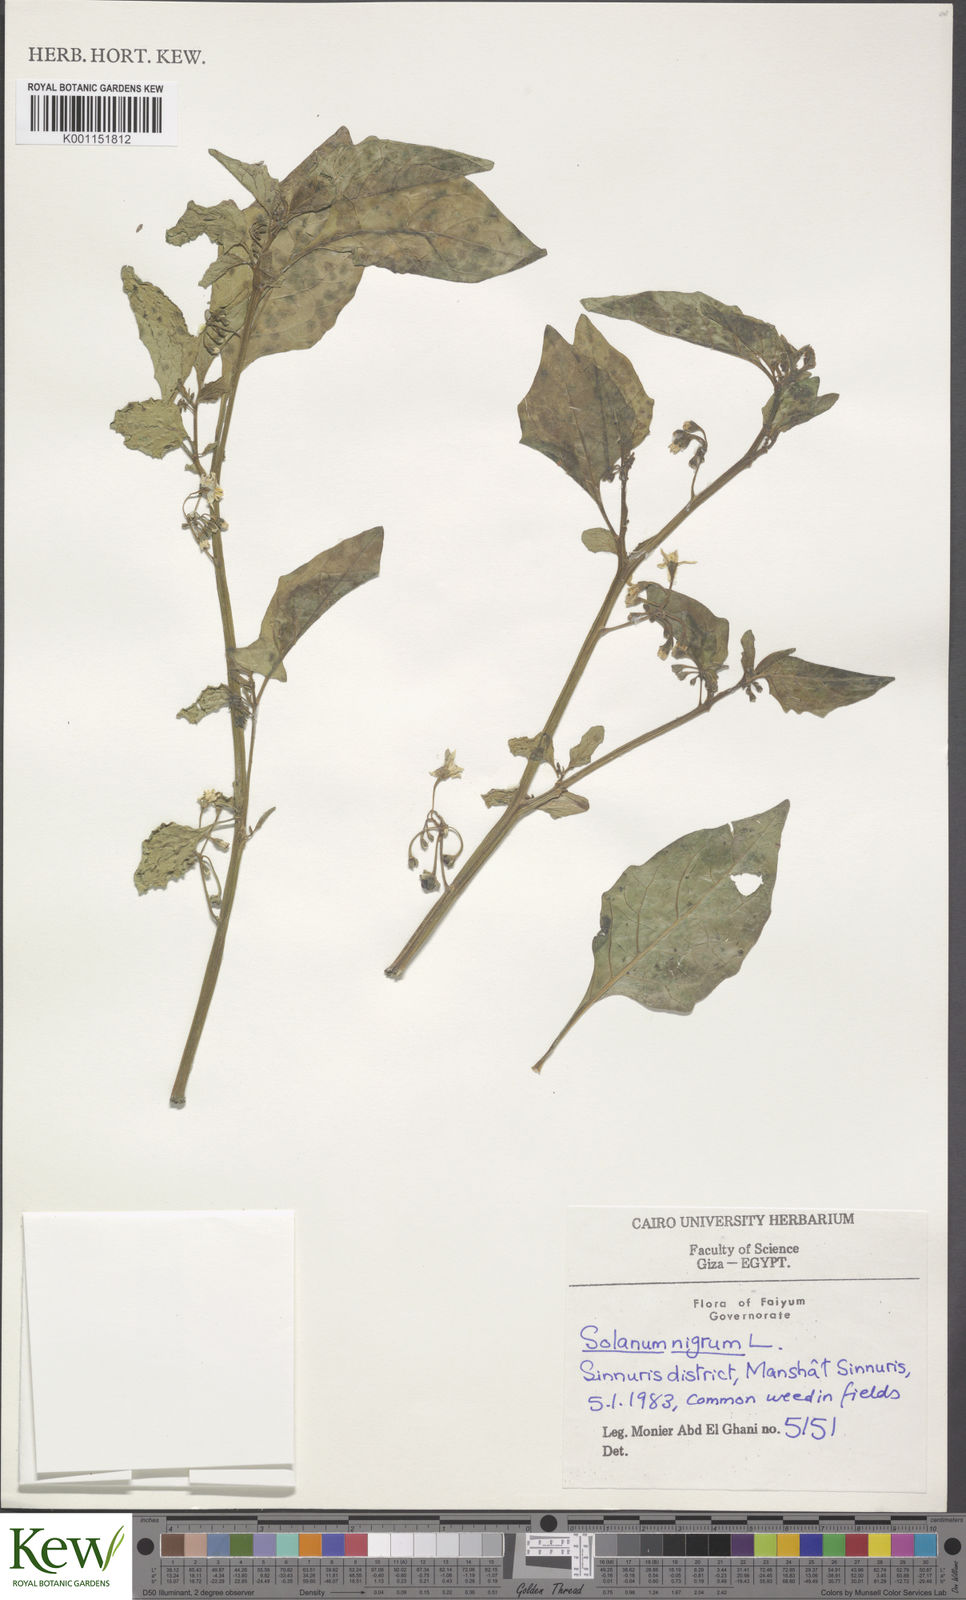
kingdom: Plantae
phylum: Tracheophyta
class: Magnoliopsida
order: Solanales
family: Solanaceae
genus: Solanum
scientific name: Solanum nigrum
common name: Black nightshade
